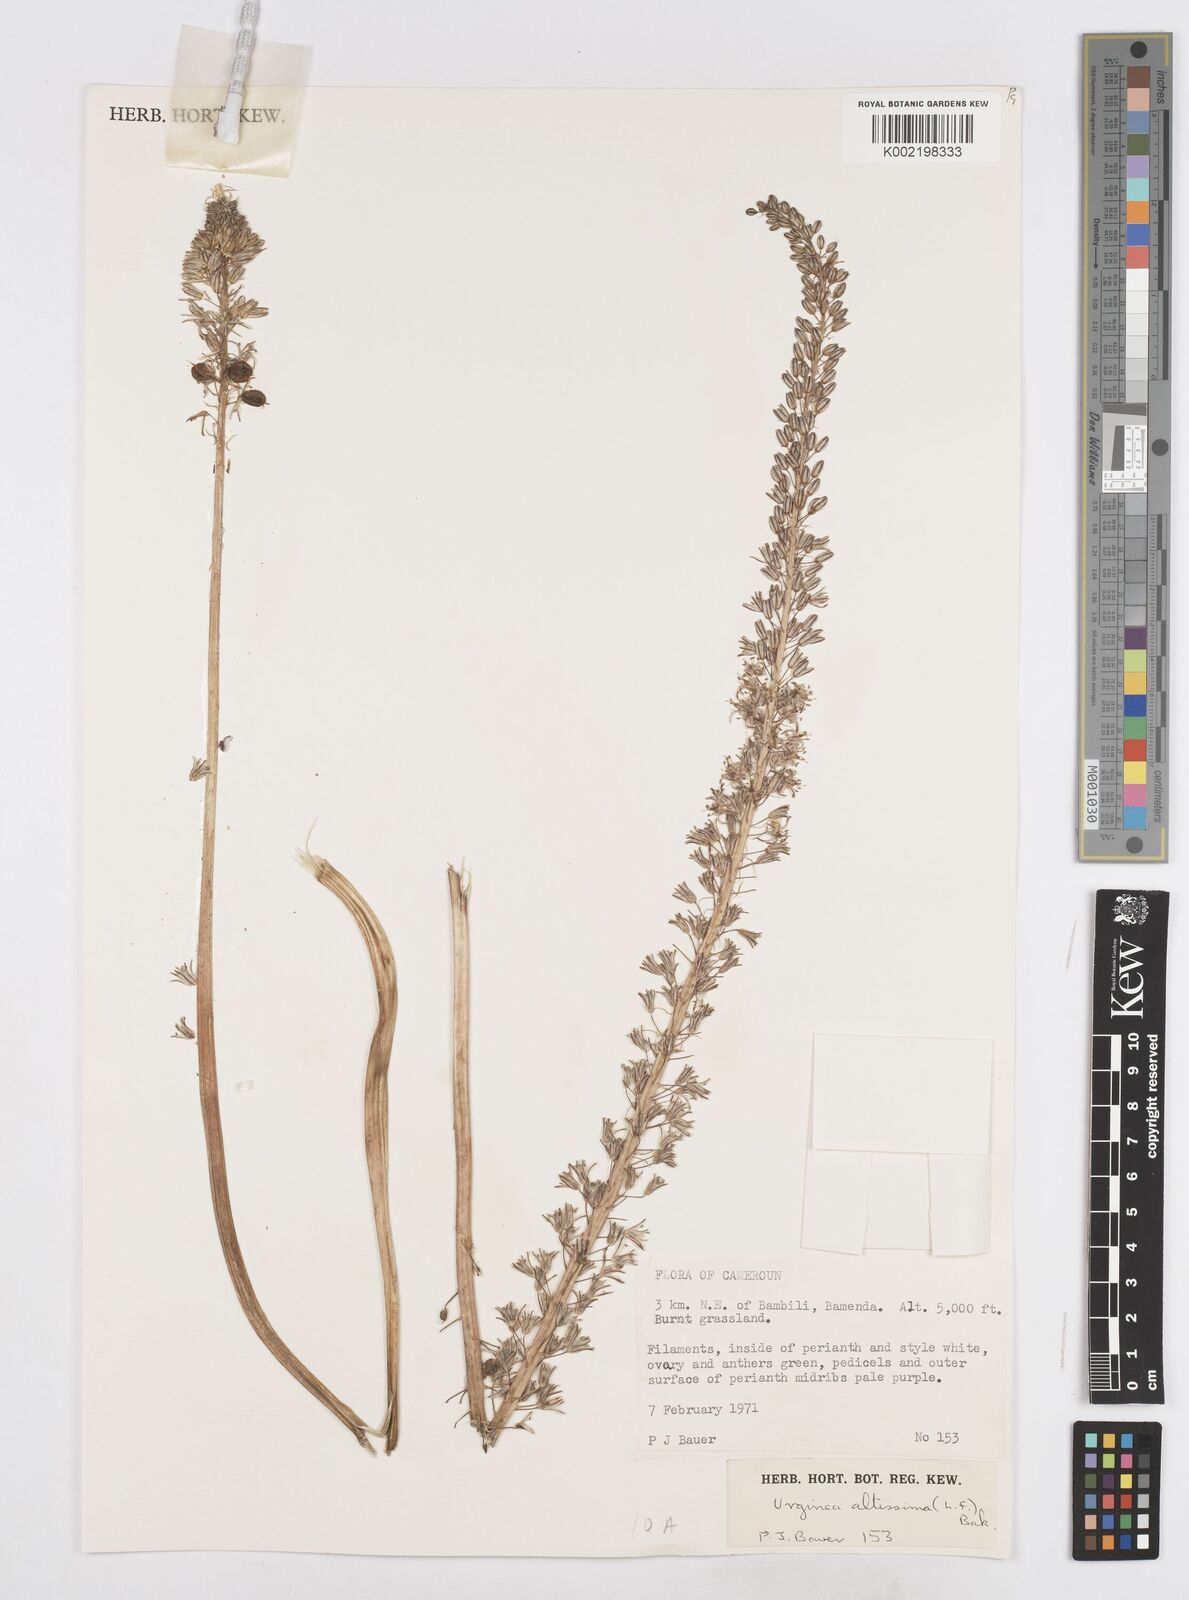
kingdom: Plantae
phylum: Tracheophyta
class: Liliopsida
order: Asparagales
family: Asparagaceae
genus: Drimia
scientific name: Drimia altissima
